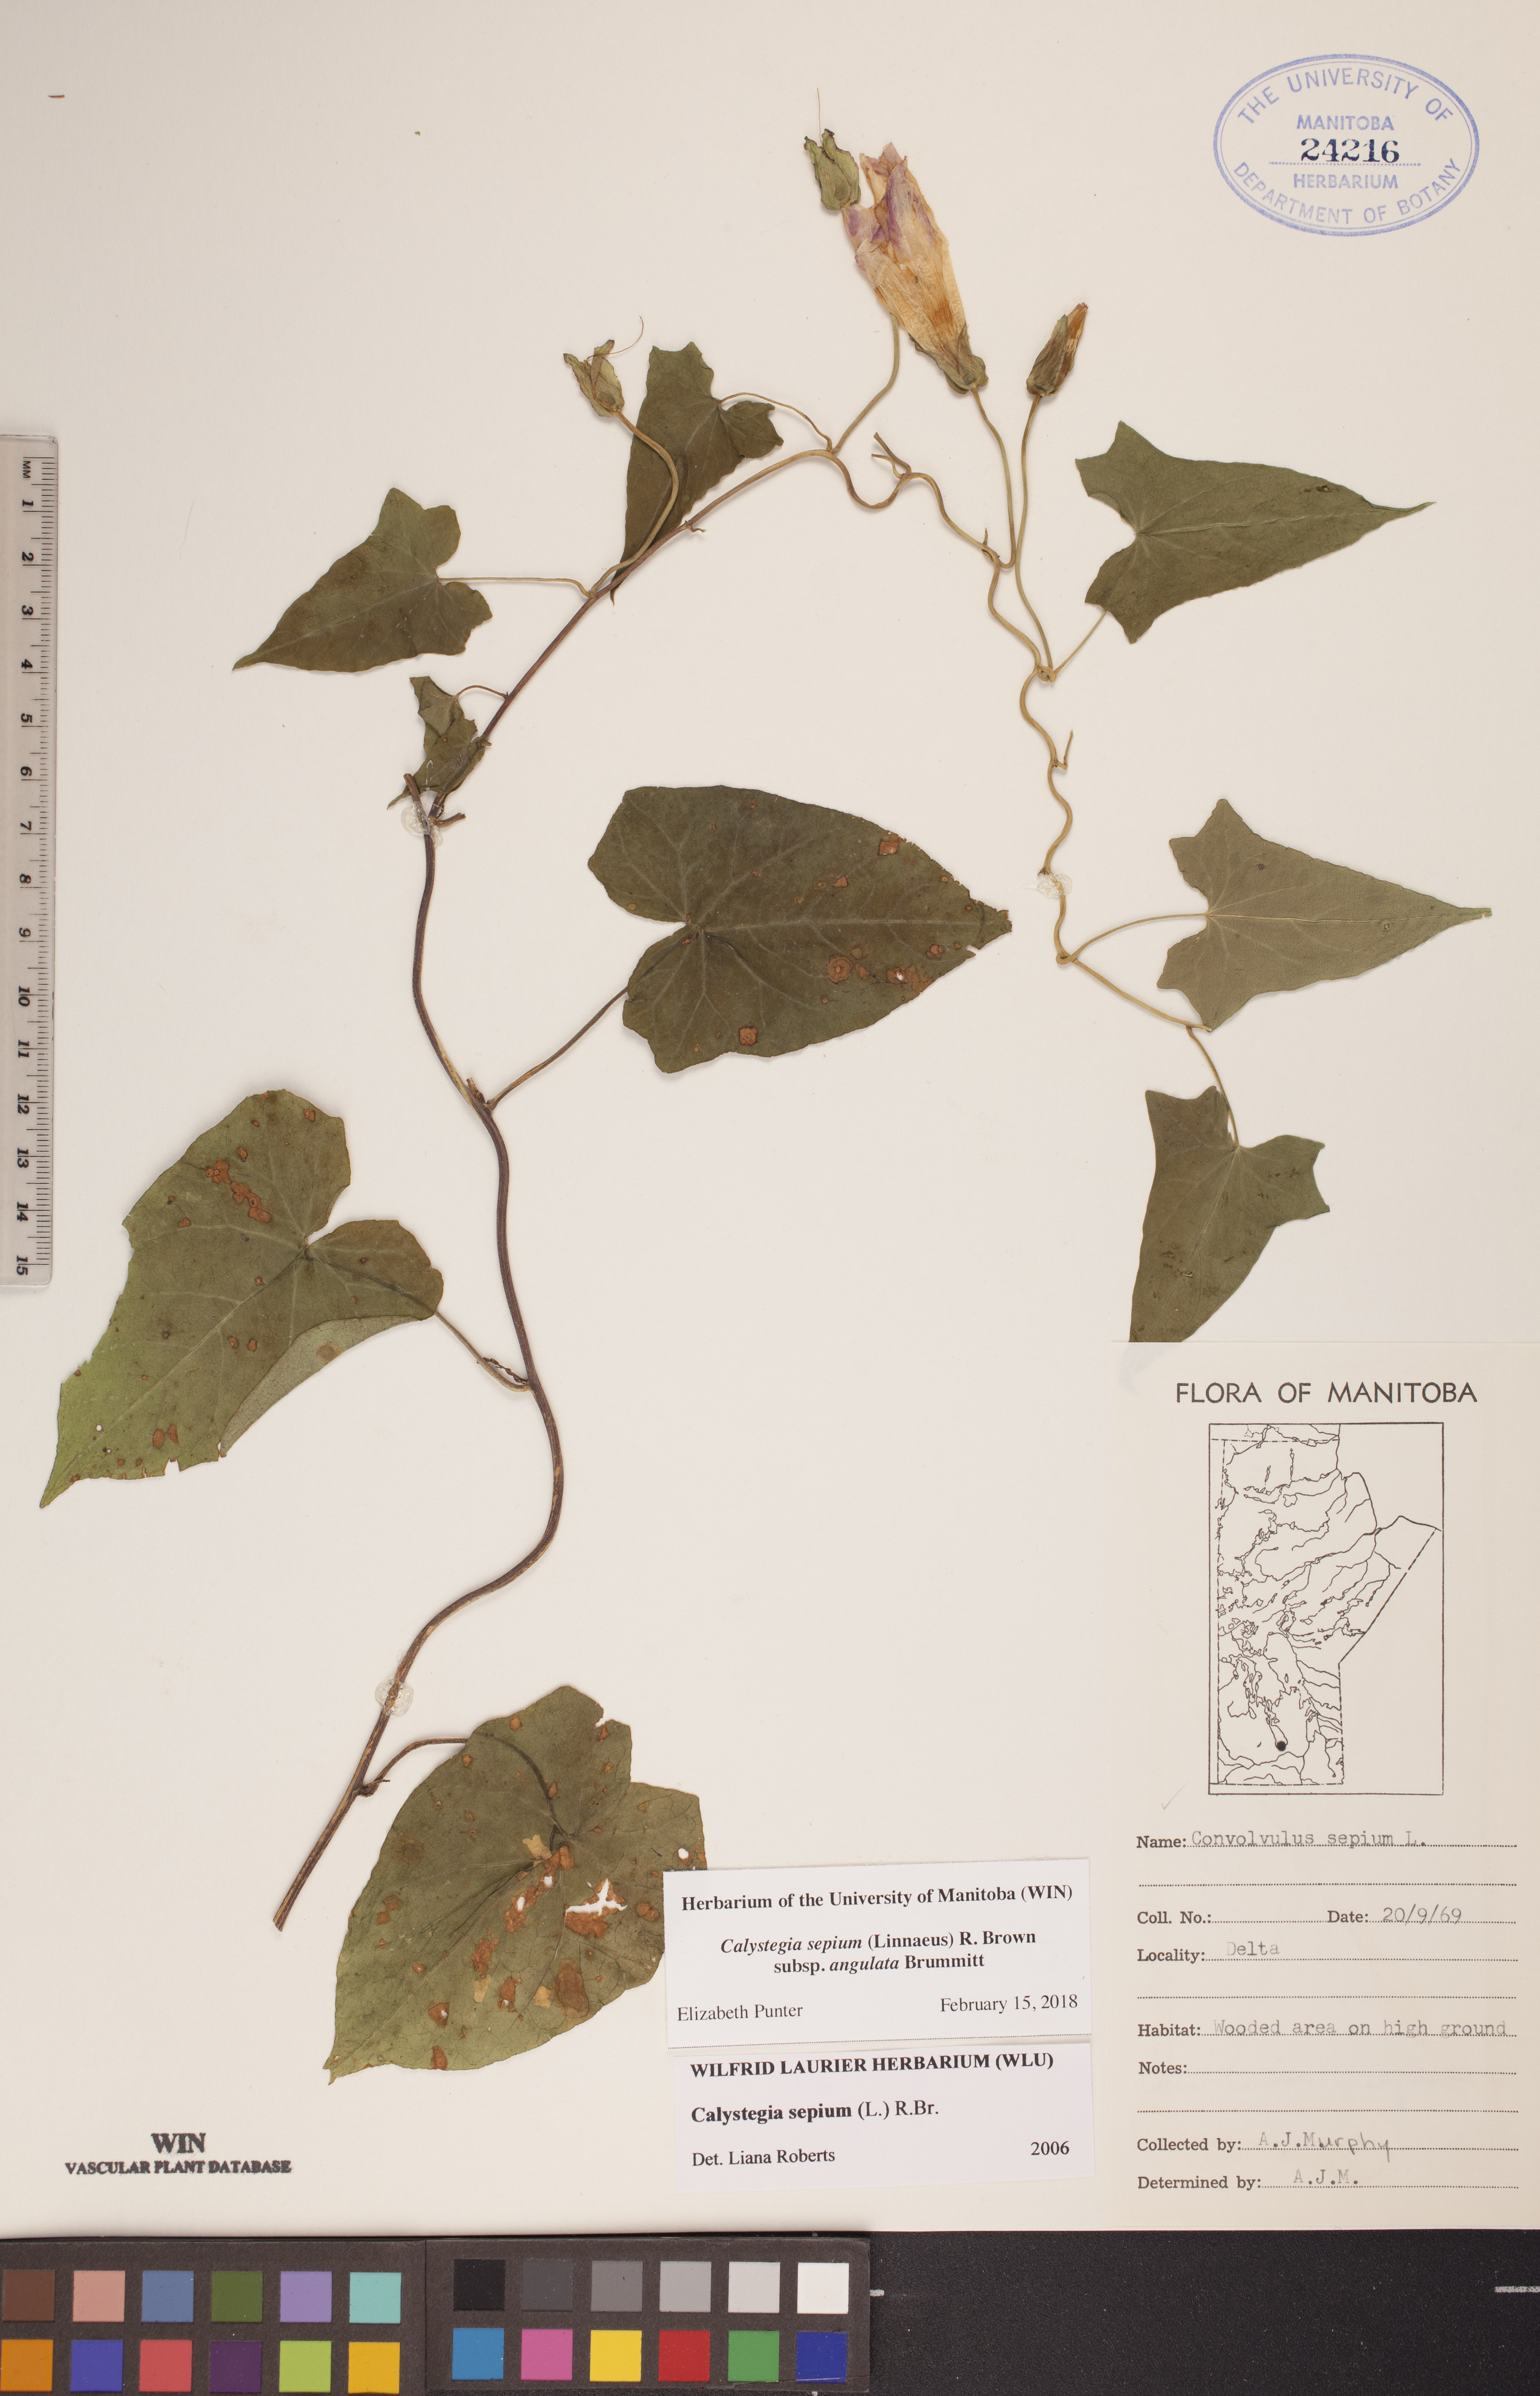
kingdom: Plantae
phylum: Tracheophyta
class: Magnoliopsida
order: Solanales
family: Convolvulaceae
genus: Calystegia
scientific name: Calystegia sepium
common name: Hedge bindweed
